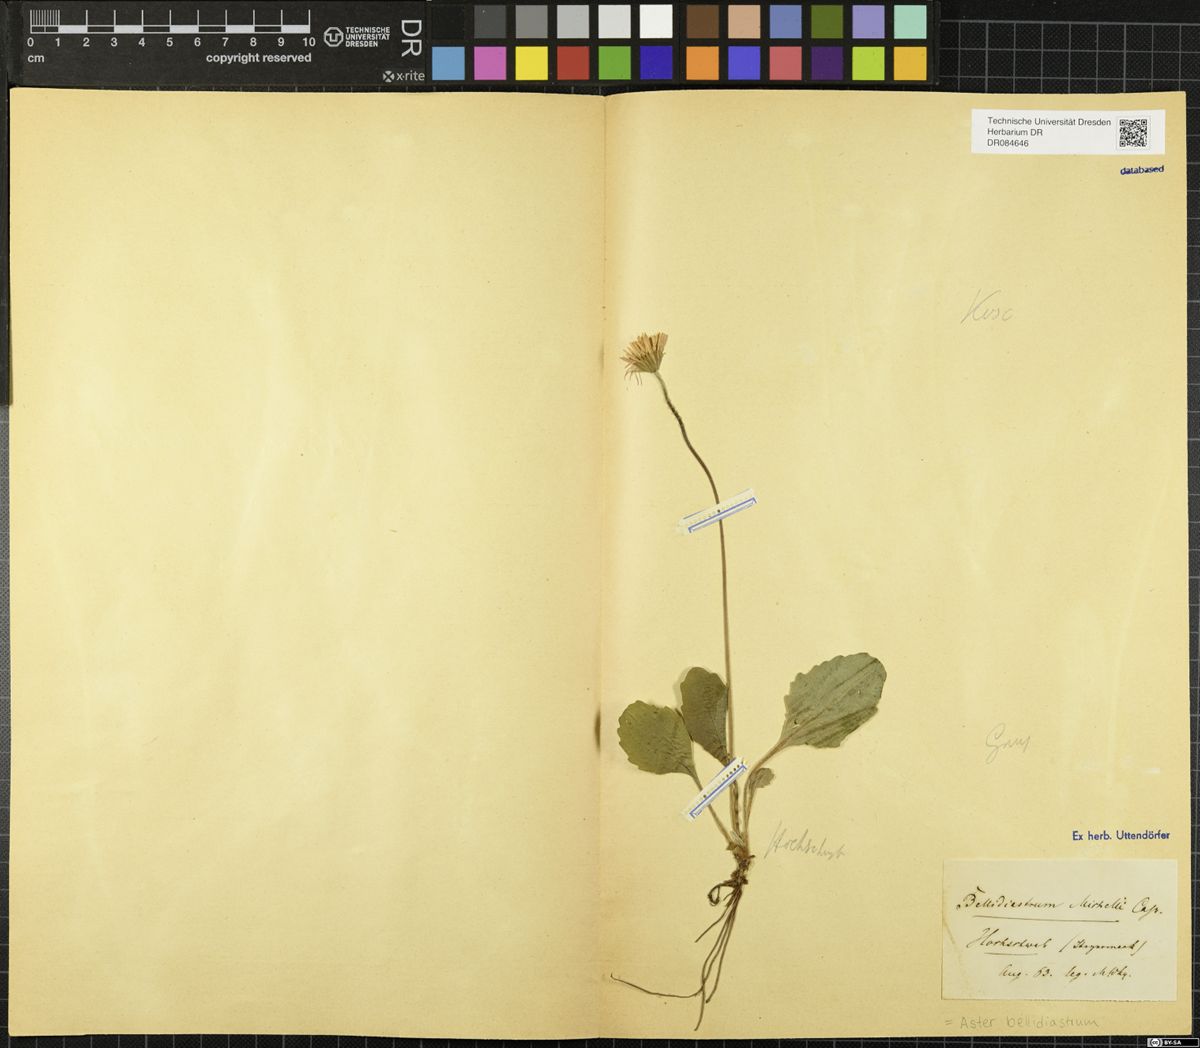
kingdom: Plantae
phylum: Tracheophyta
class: Magnoliopsida
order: Asterales
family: Asteraceae
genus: Bellidiastrum
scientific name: Bellidiastrum michelii
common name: Daisy-star aster
